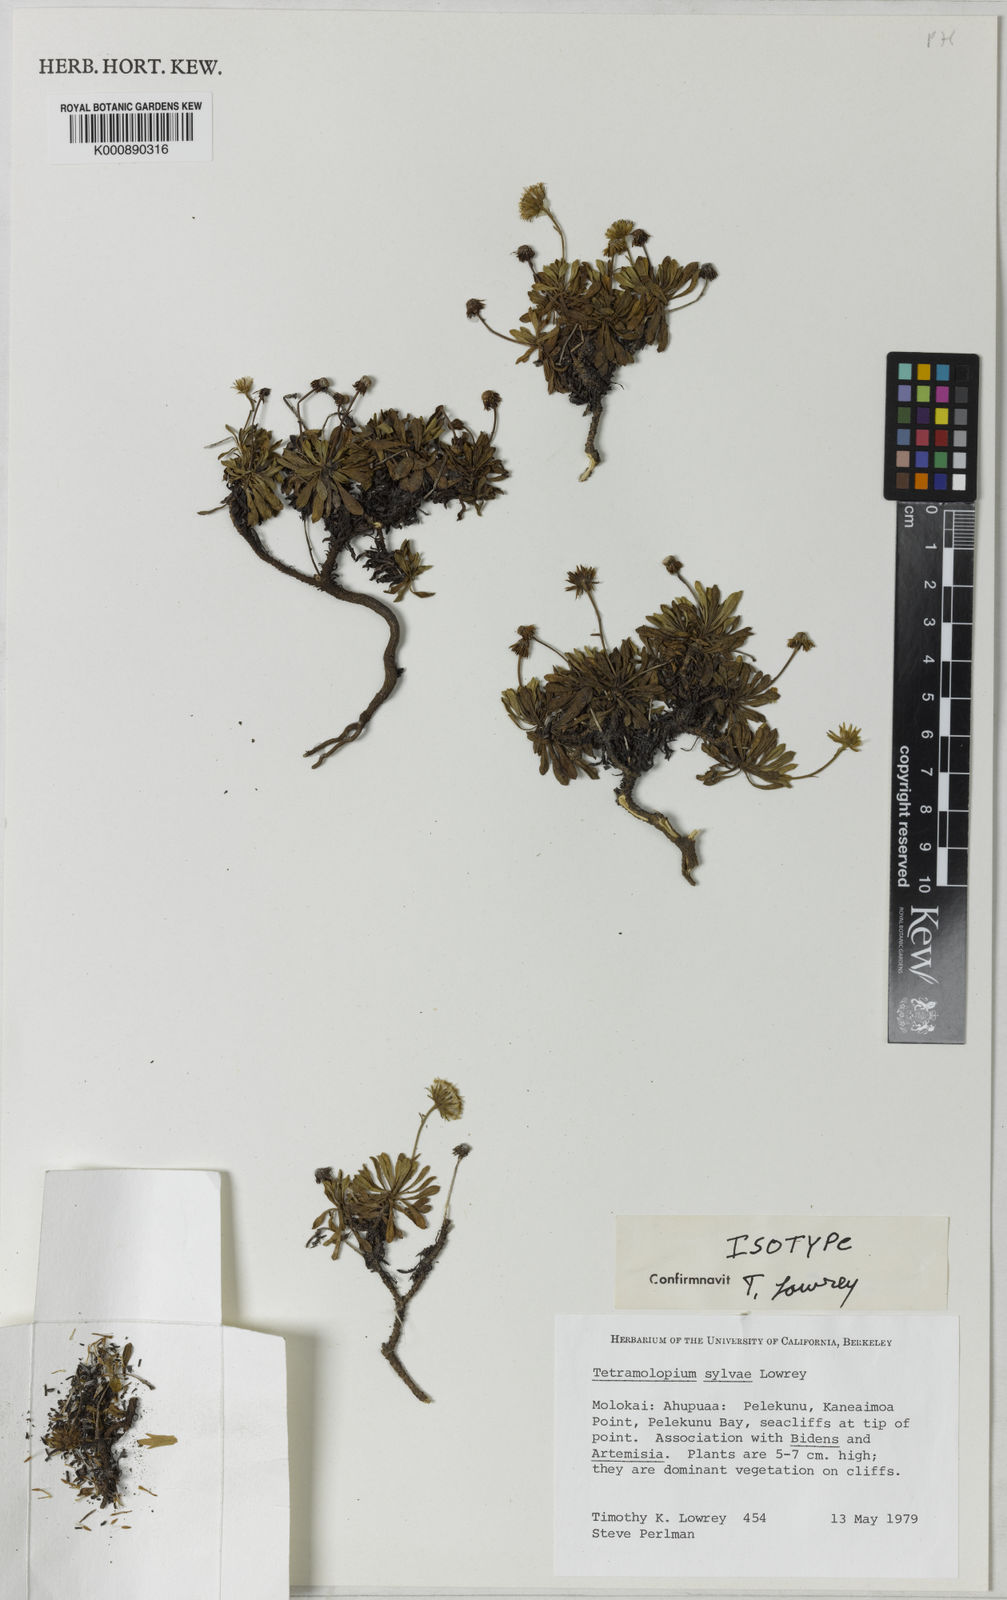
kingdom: Plantae
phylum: Tracheophyta
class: Magnoliopsida
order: Asterales
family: Asteraceae
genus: Tetramolopium
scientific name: Tetramolopium sylvae
